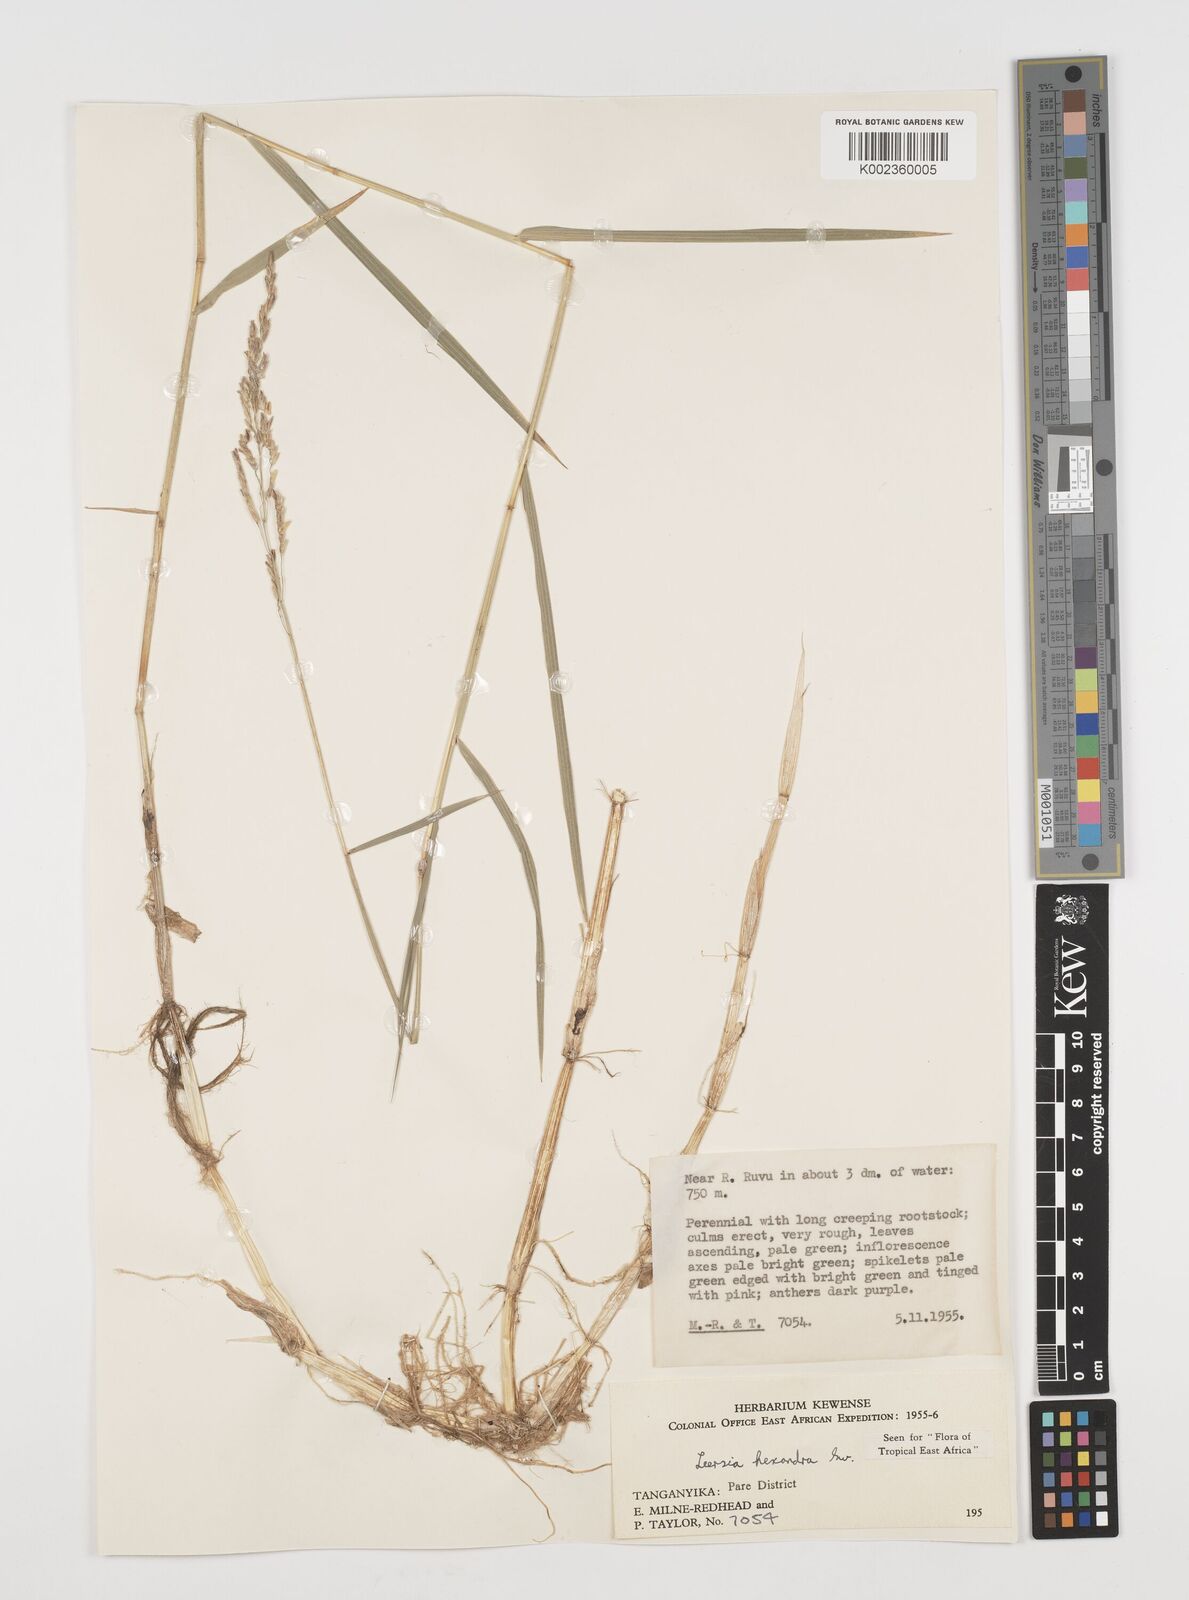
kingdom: Plantae
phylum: Tracheophyta
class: Liliopsida
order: Poales
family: Poaceae
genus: Leersia
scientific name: Leersia hexandra
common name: Southern cut grass
